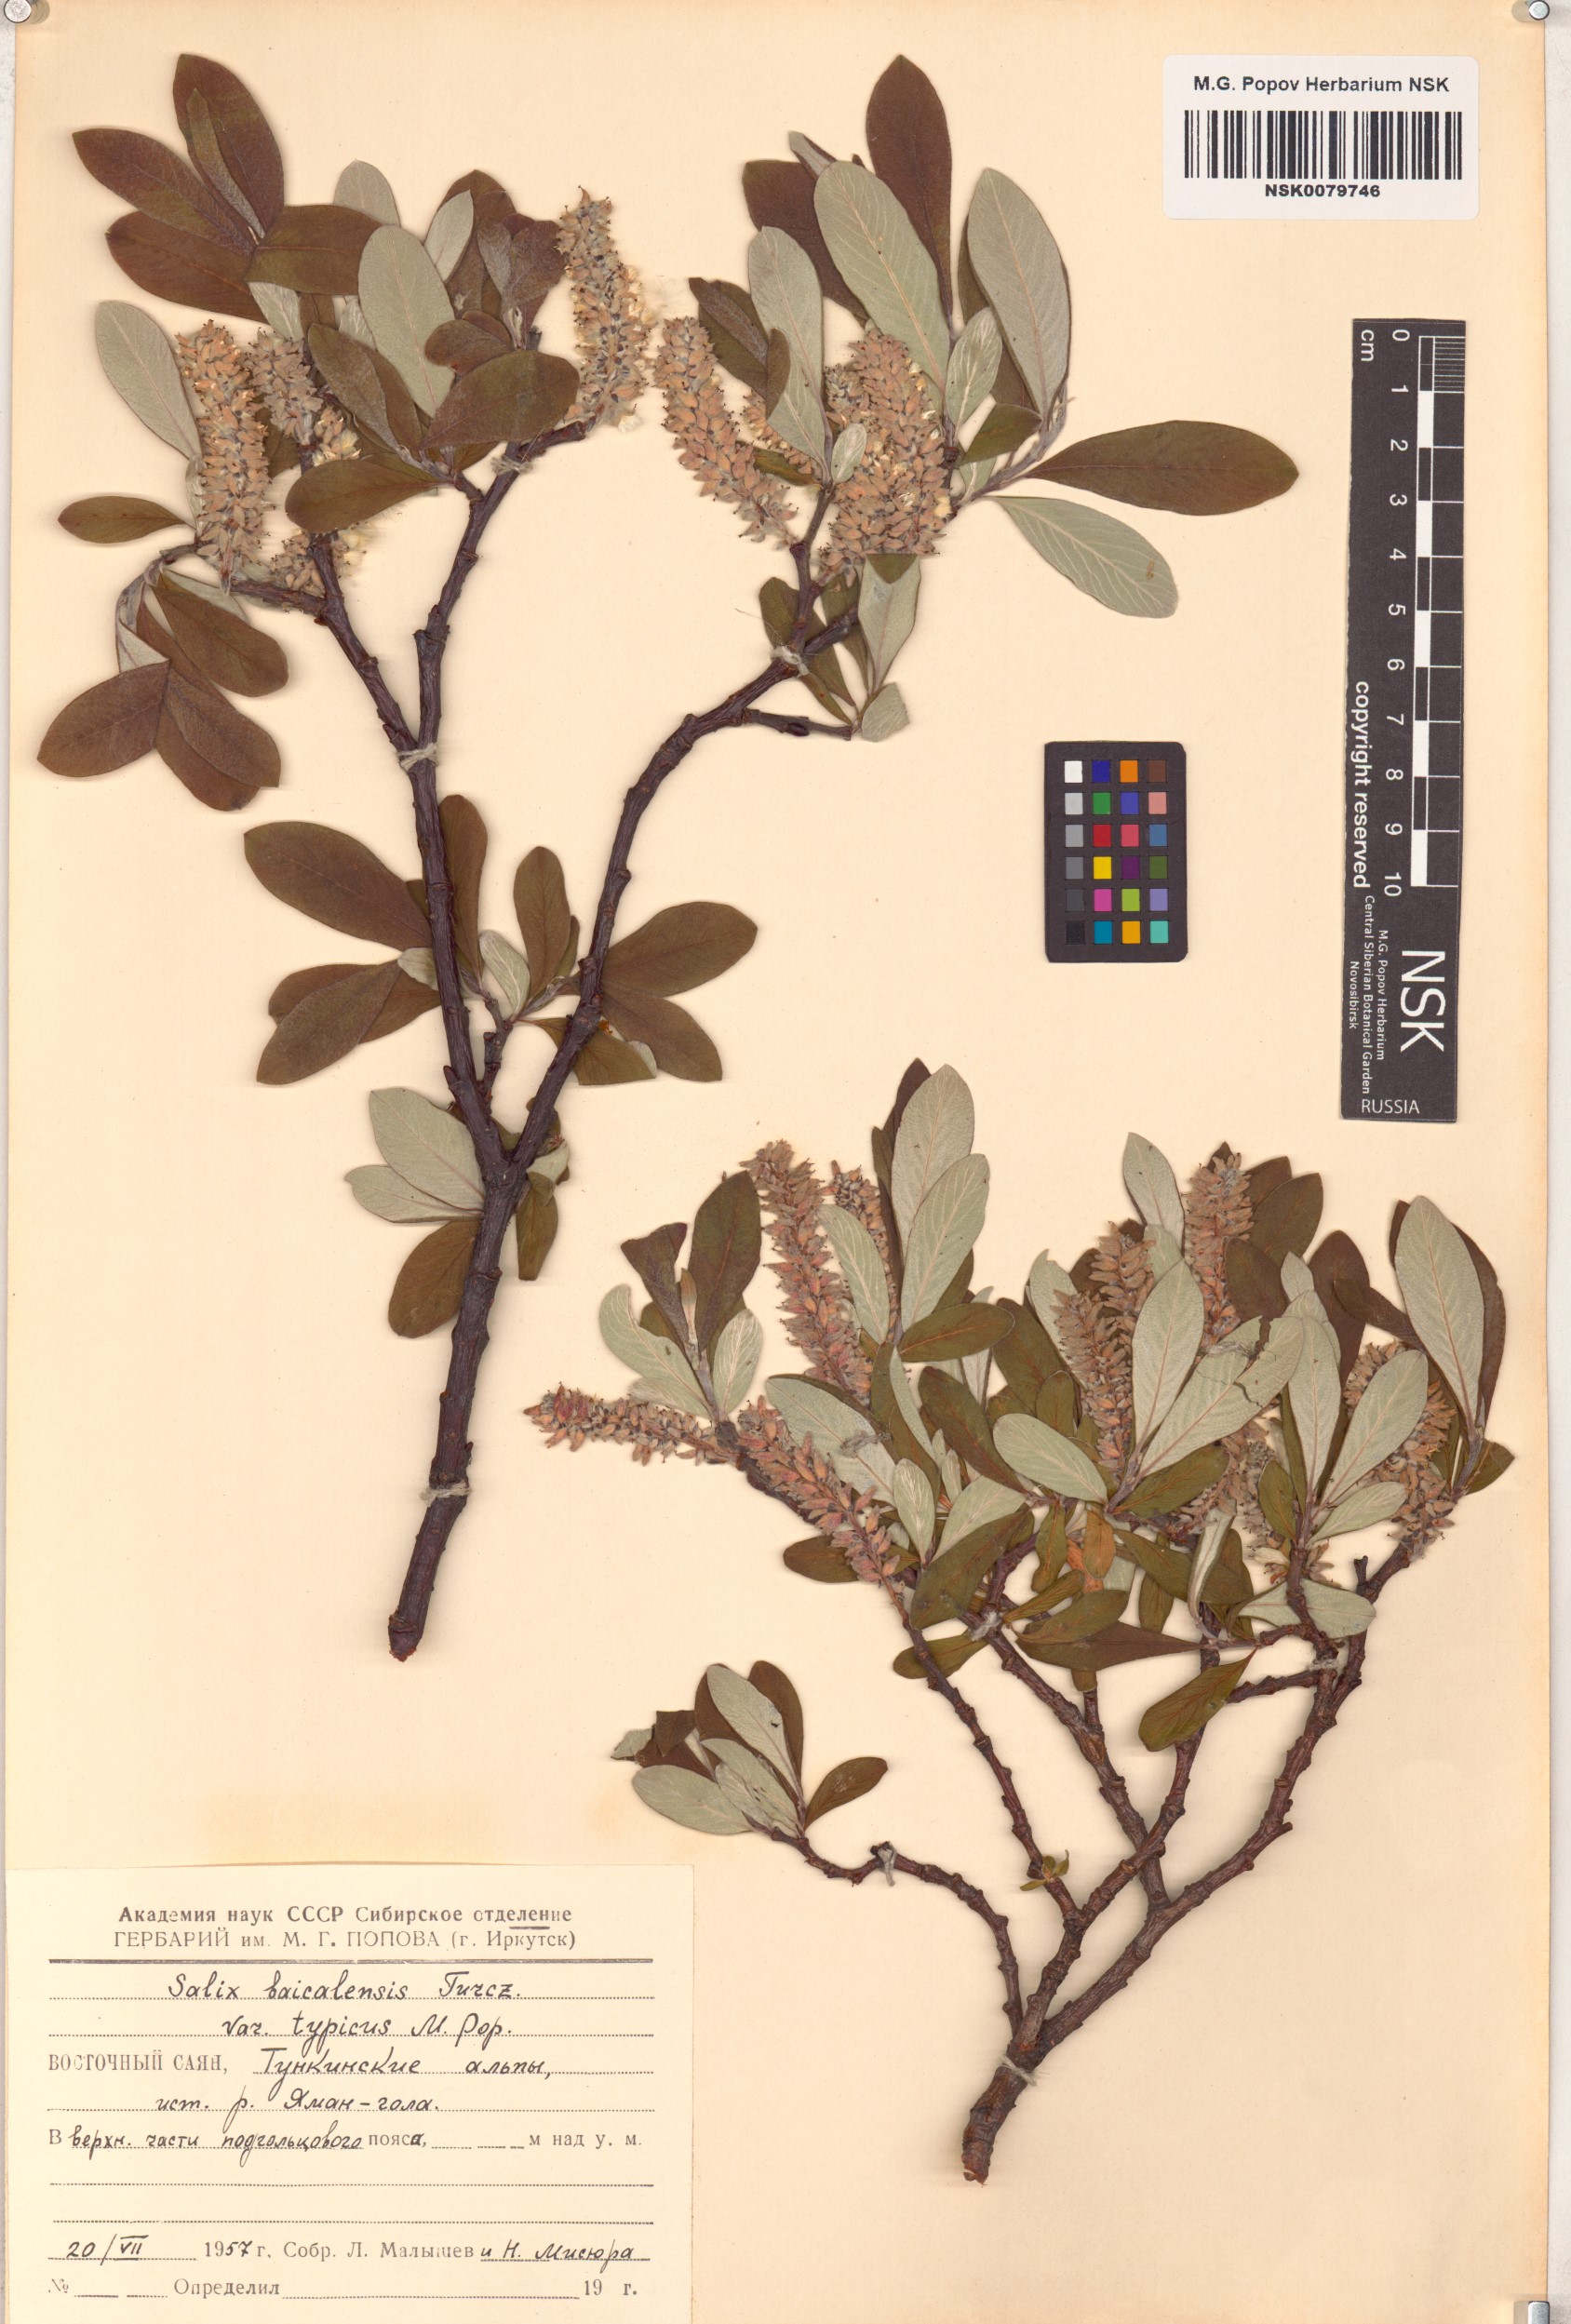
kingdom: Plantae
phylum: Tracheophyta
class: Magnoliopsida
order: Malpighiales
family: Salicaceae
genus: Salix
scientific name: Salix krylovii
